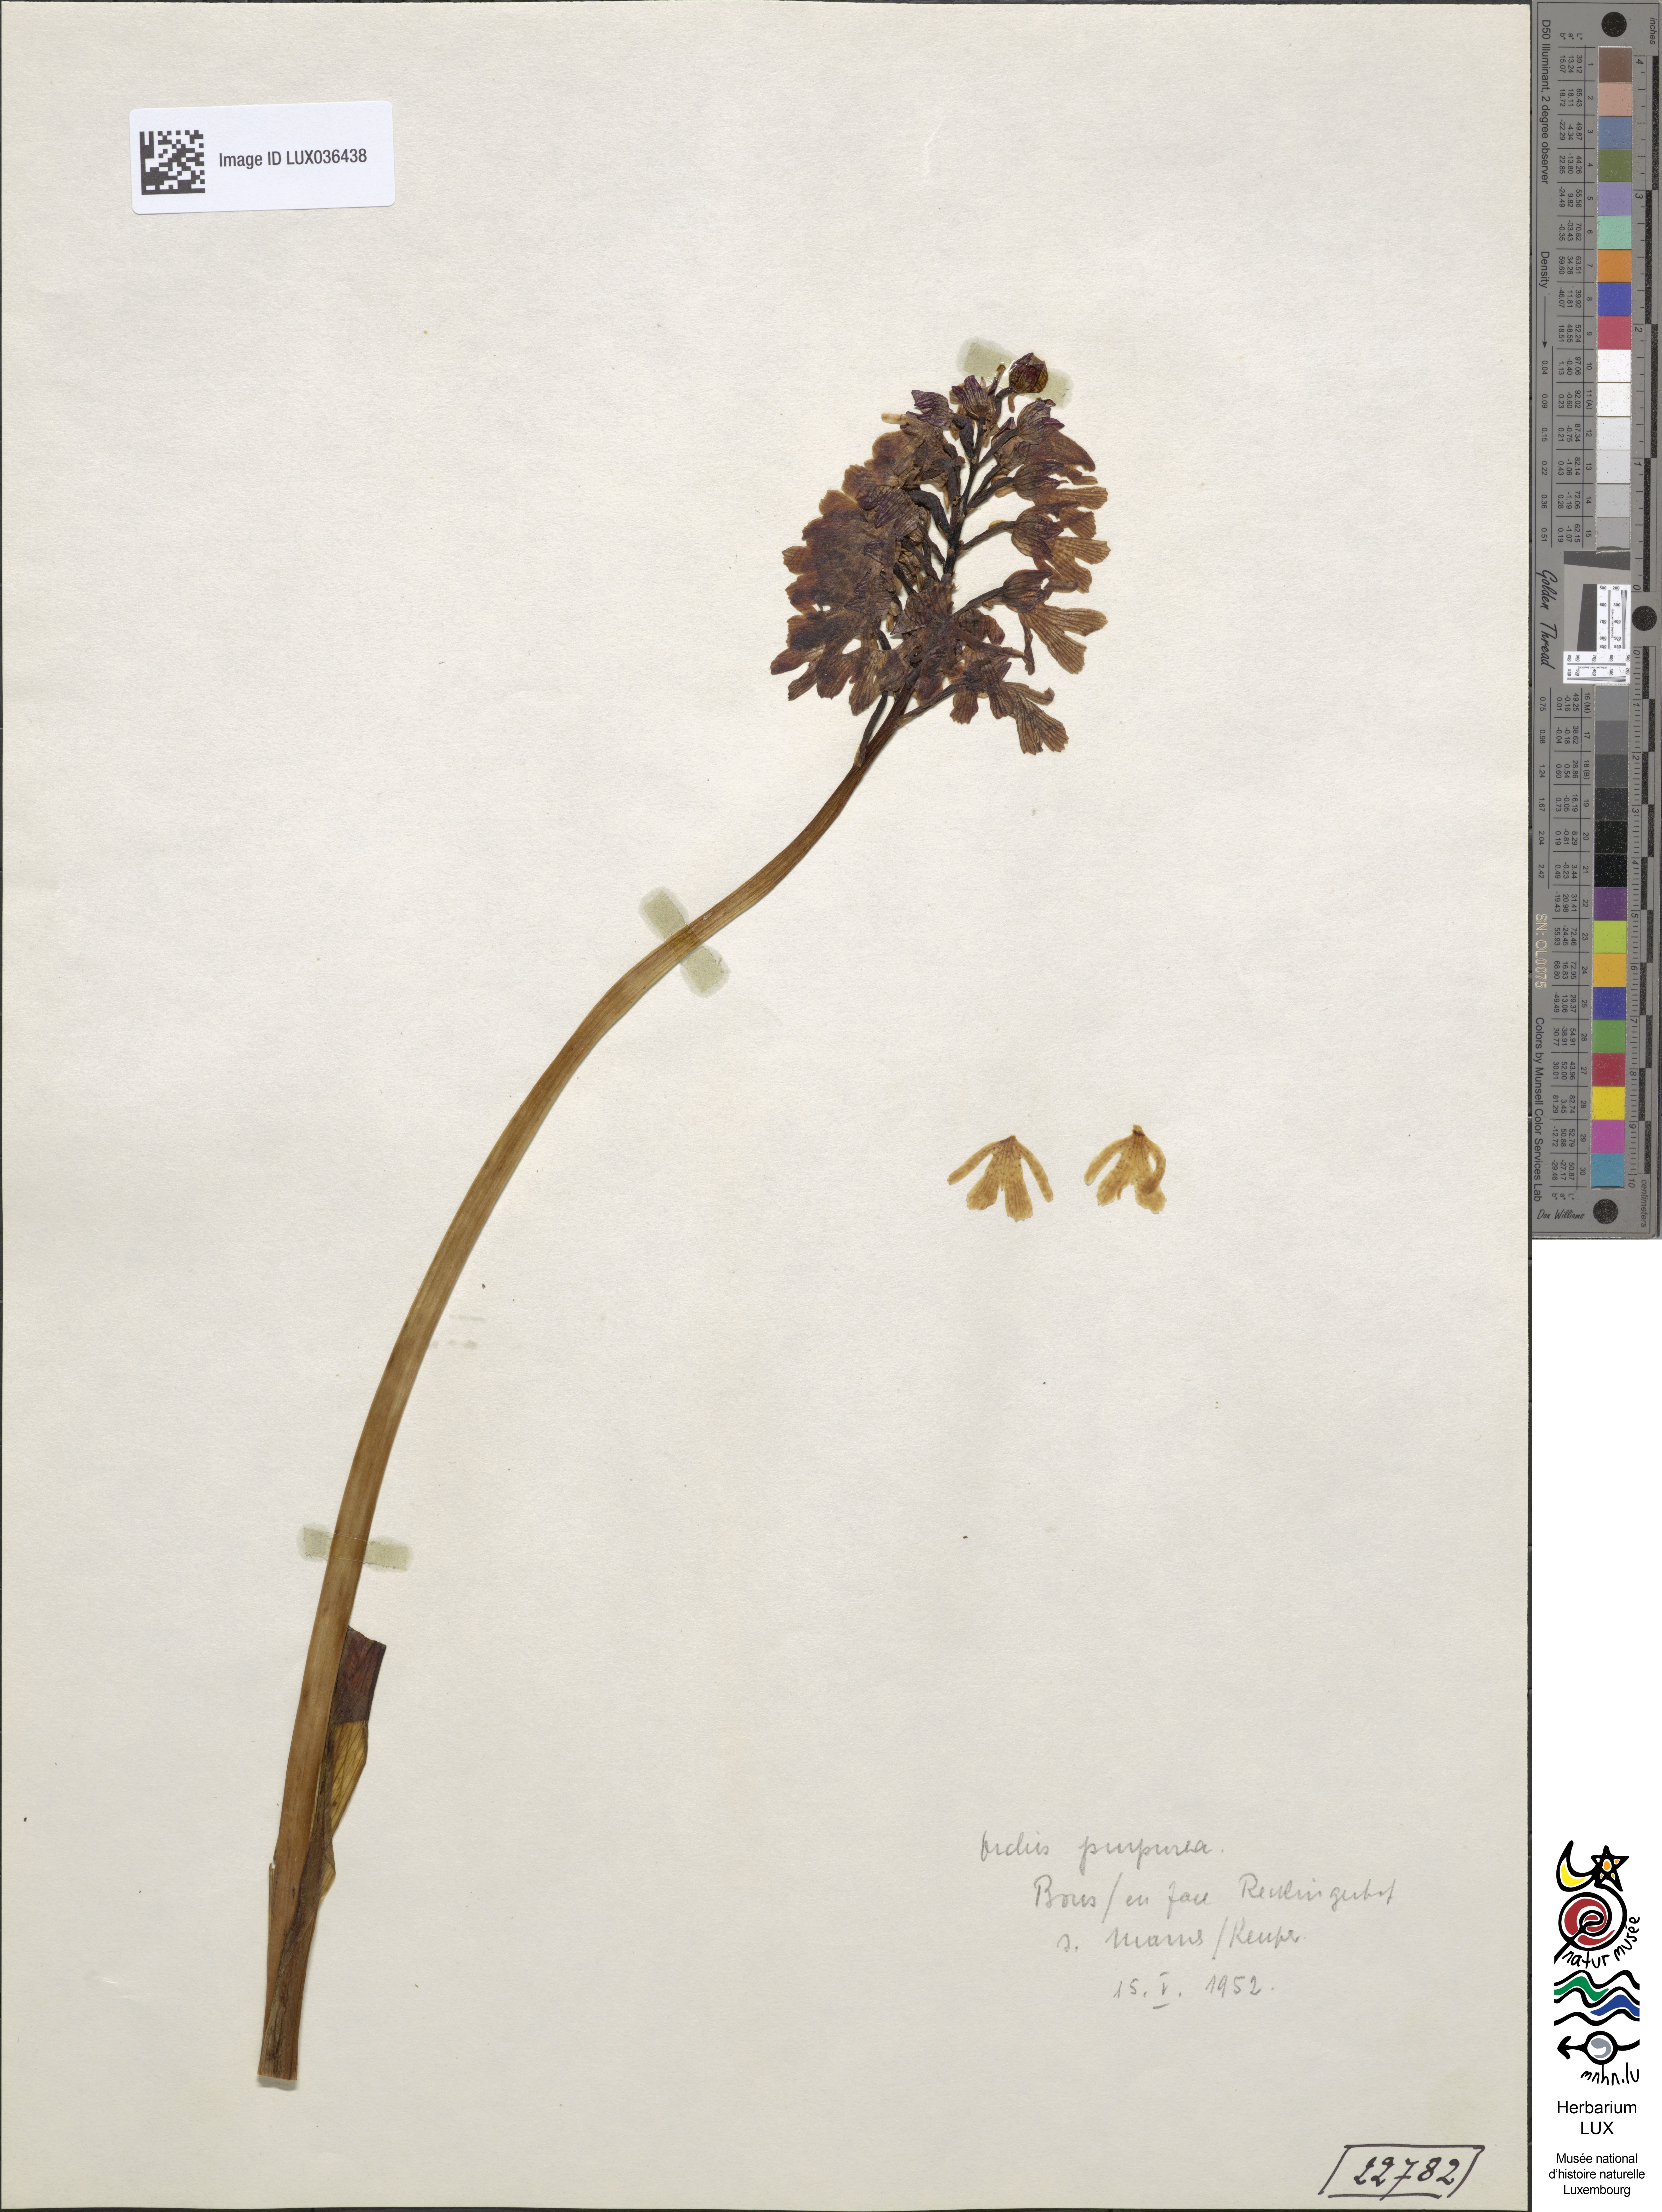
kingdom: Plantae
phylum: Tracheophyta
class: Liliopsida
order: Asparagales
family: Orchidaceae
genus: Orchis
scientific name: Orchis purpurea
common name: Lady orchid
